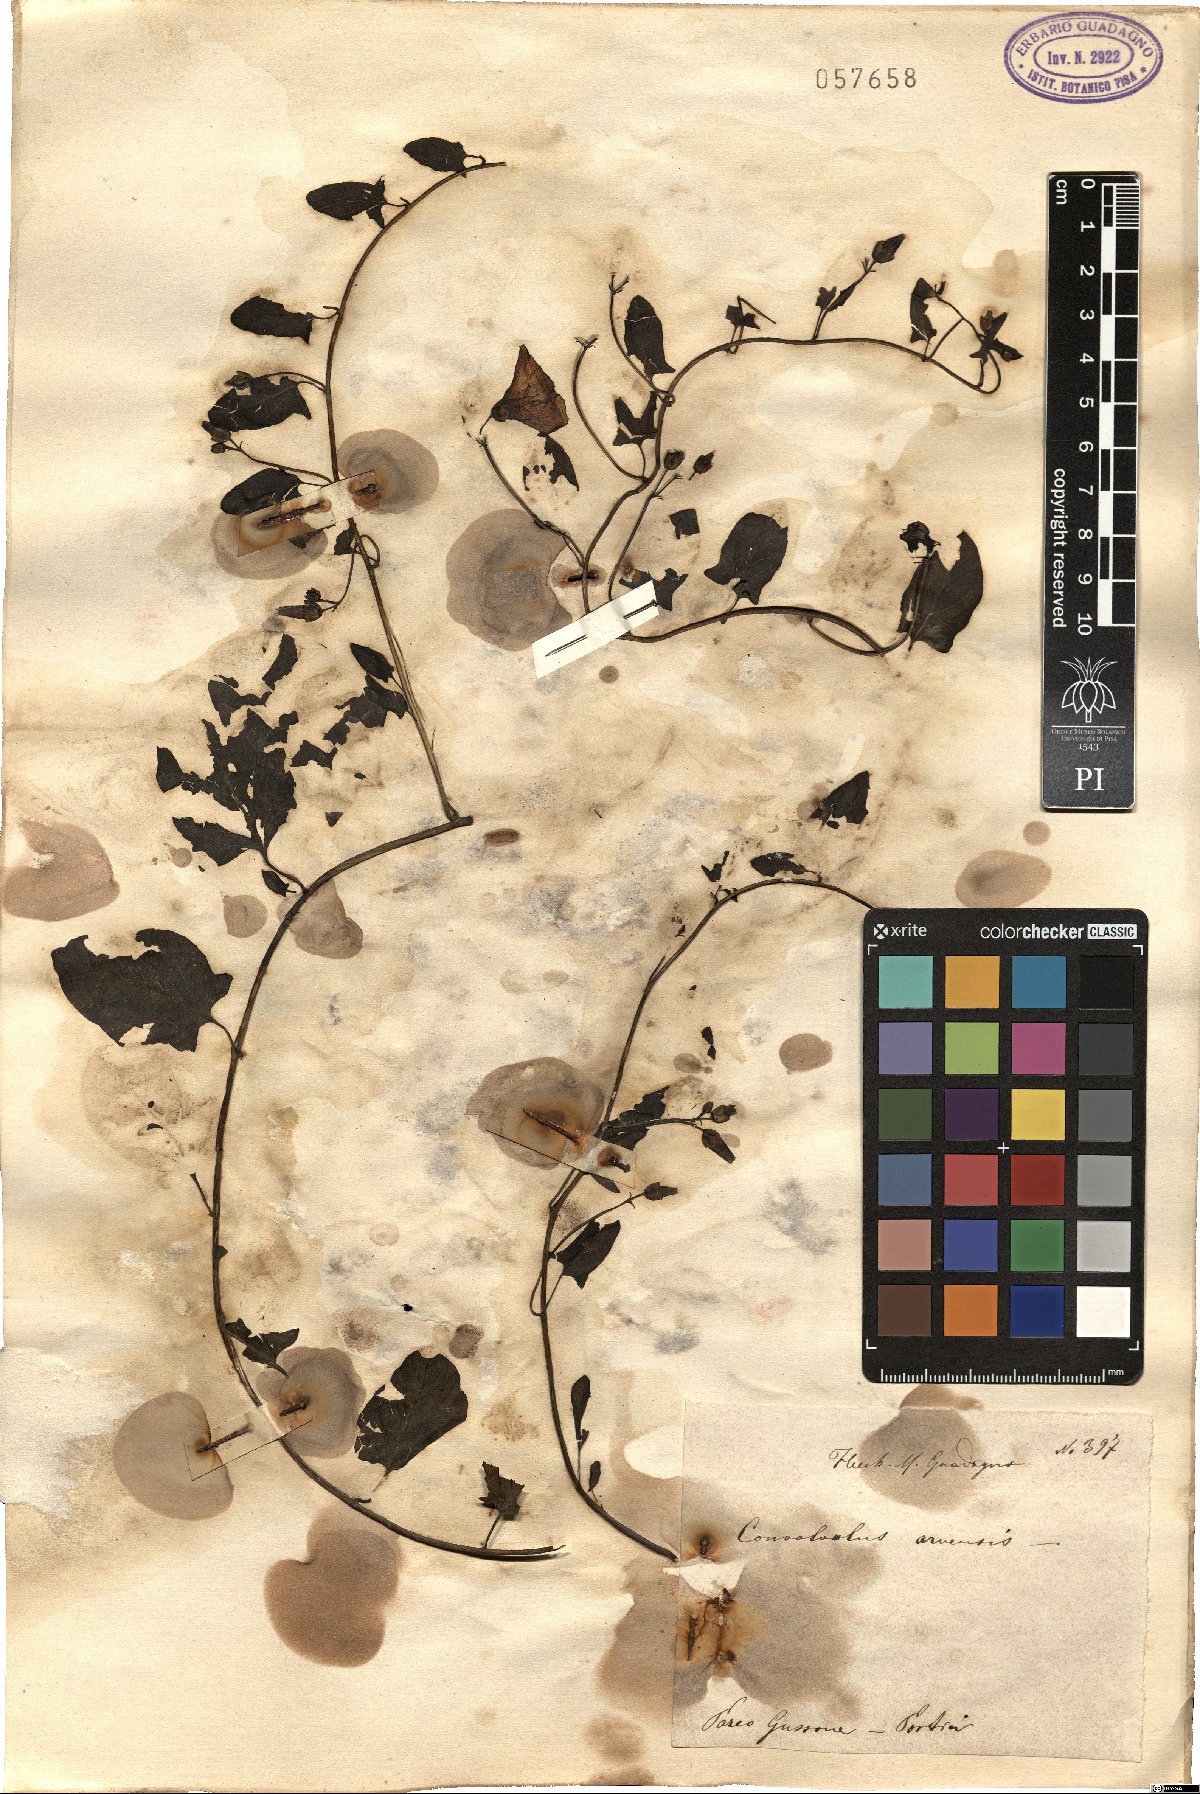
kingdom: Plantae
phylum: Tracheophyta
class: Magnoliopsida
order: Solanales
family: Convolvulaceae
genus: Convolvulus
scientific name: Convolvulus arvensis
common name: Field bindweed
